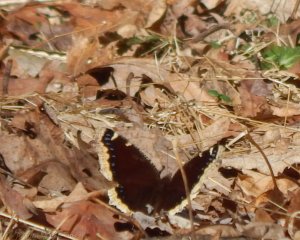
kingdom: Animalia
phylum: Arthropoda
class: Insecta
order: Lepidoptera
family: Nymphalidae
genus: Nymphalis
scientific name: Nymphalis antiopa
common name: Mourning Cloak
